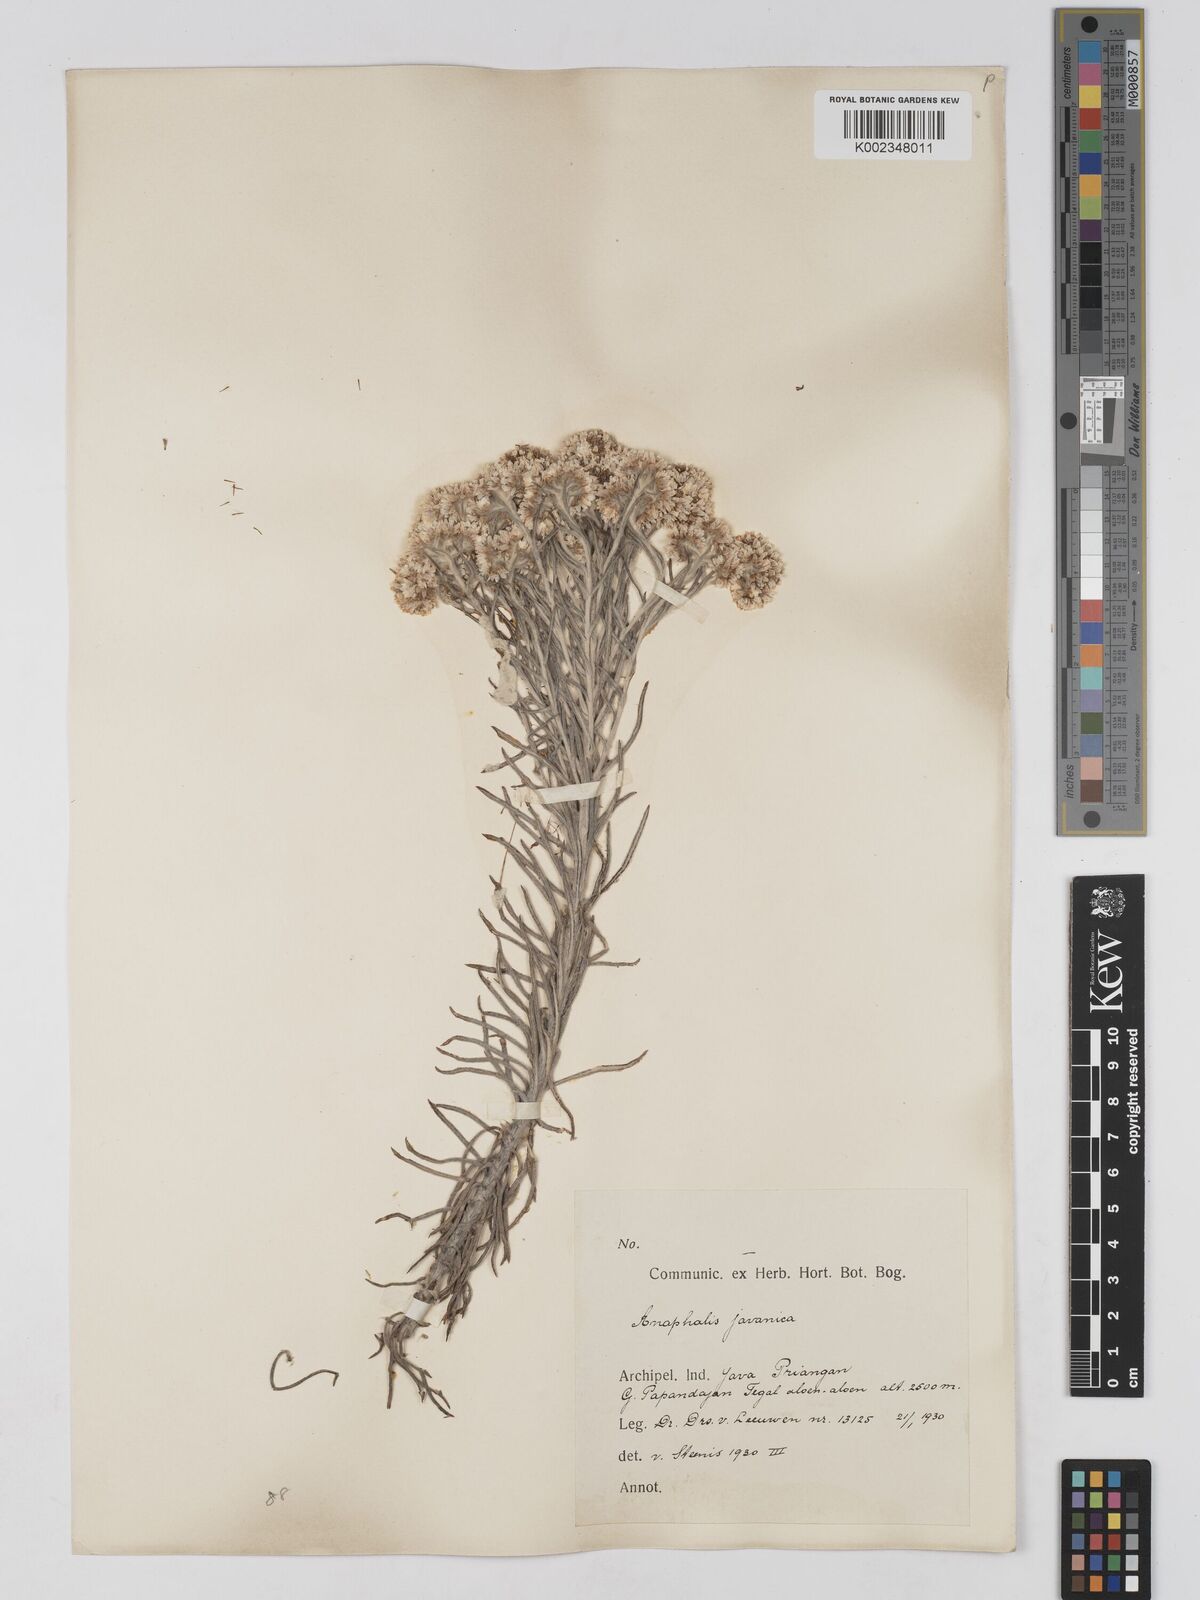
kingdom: Plantae
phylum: Tracheophyta
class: Magnoliopsida
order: Asterales
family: Asteraceae
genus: Anaphalis
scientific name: Anaphalis javanica
